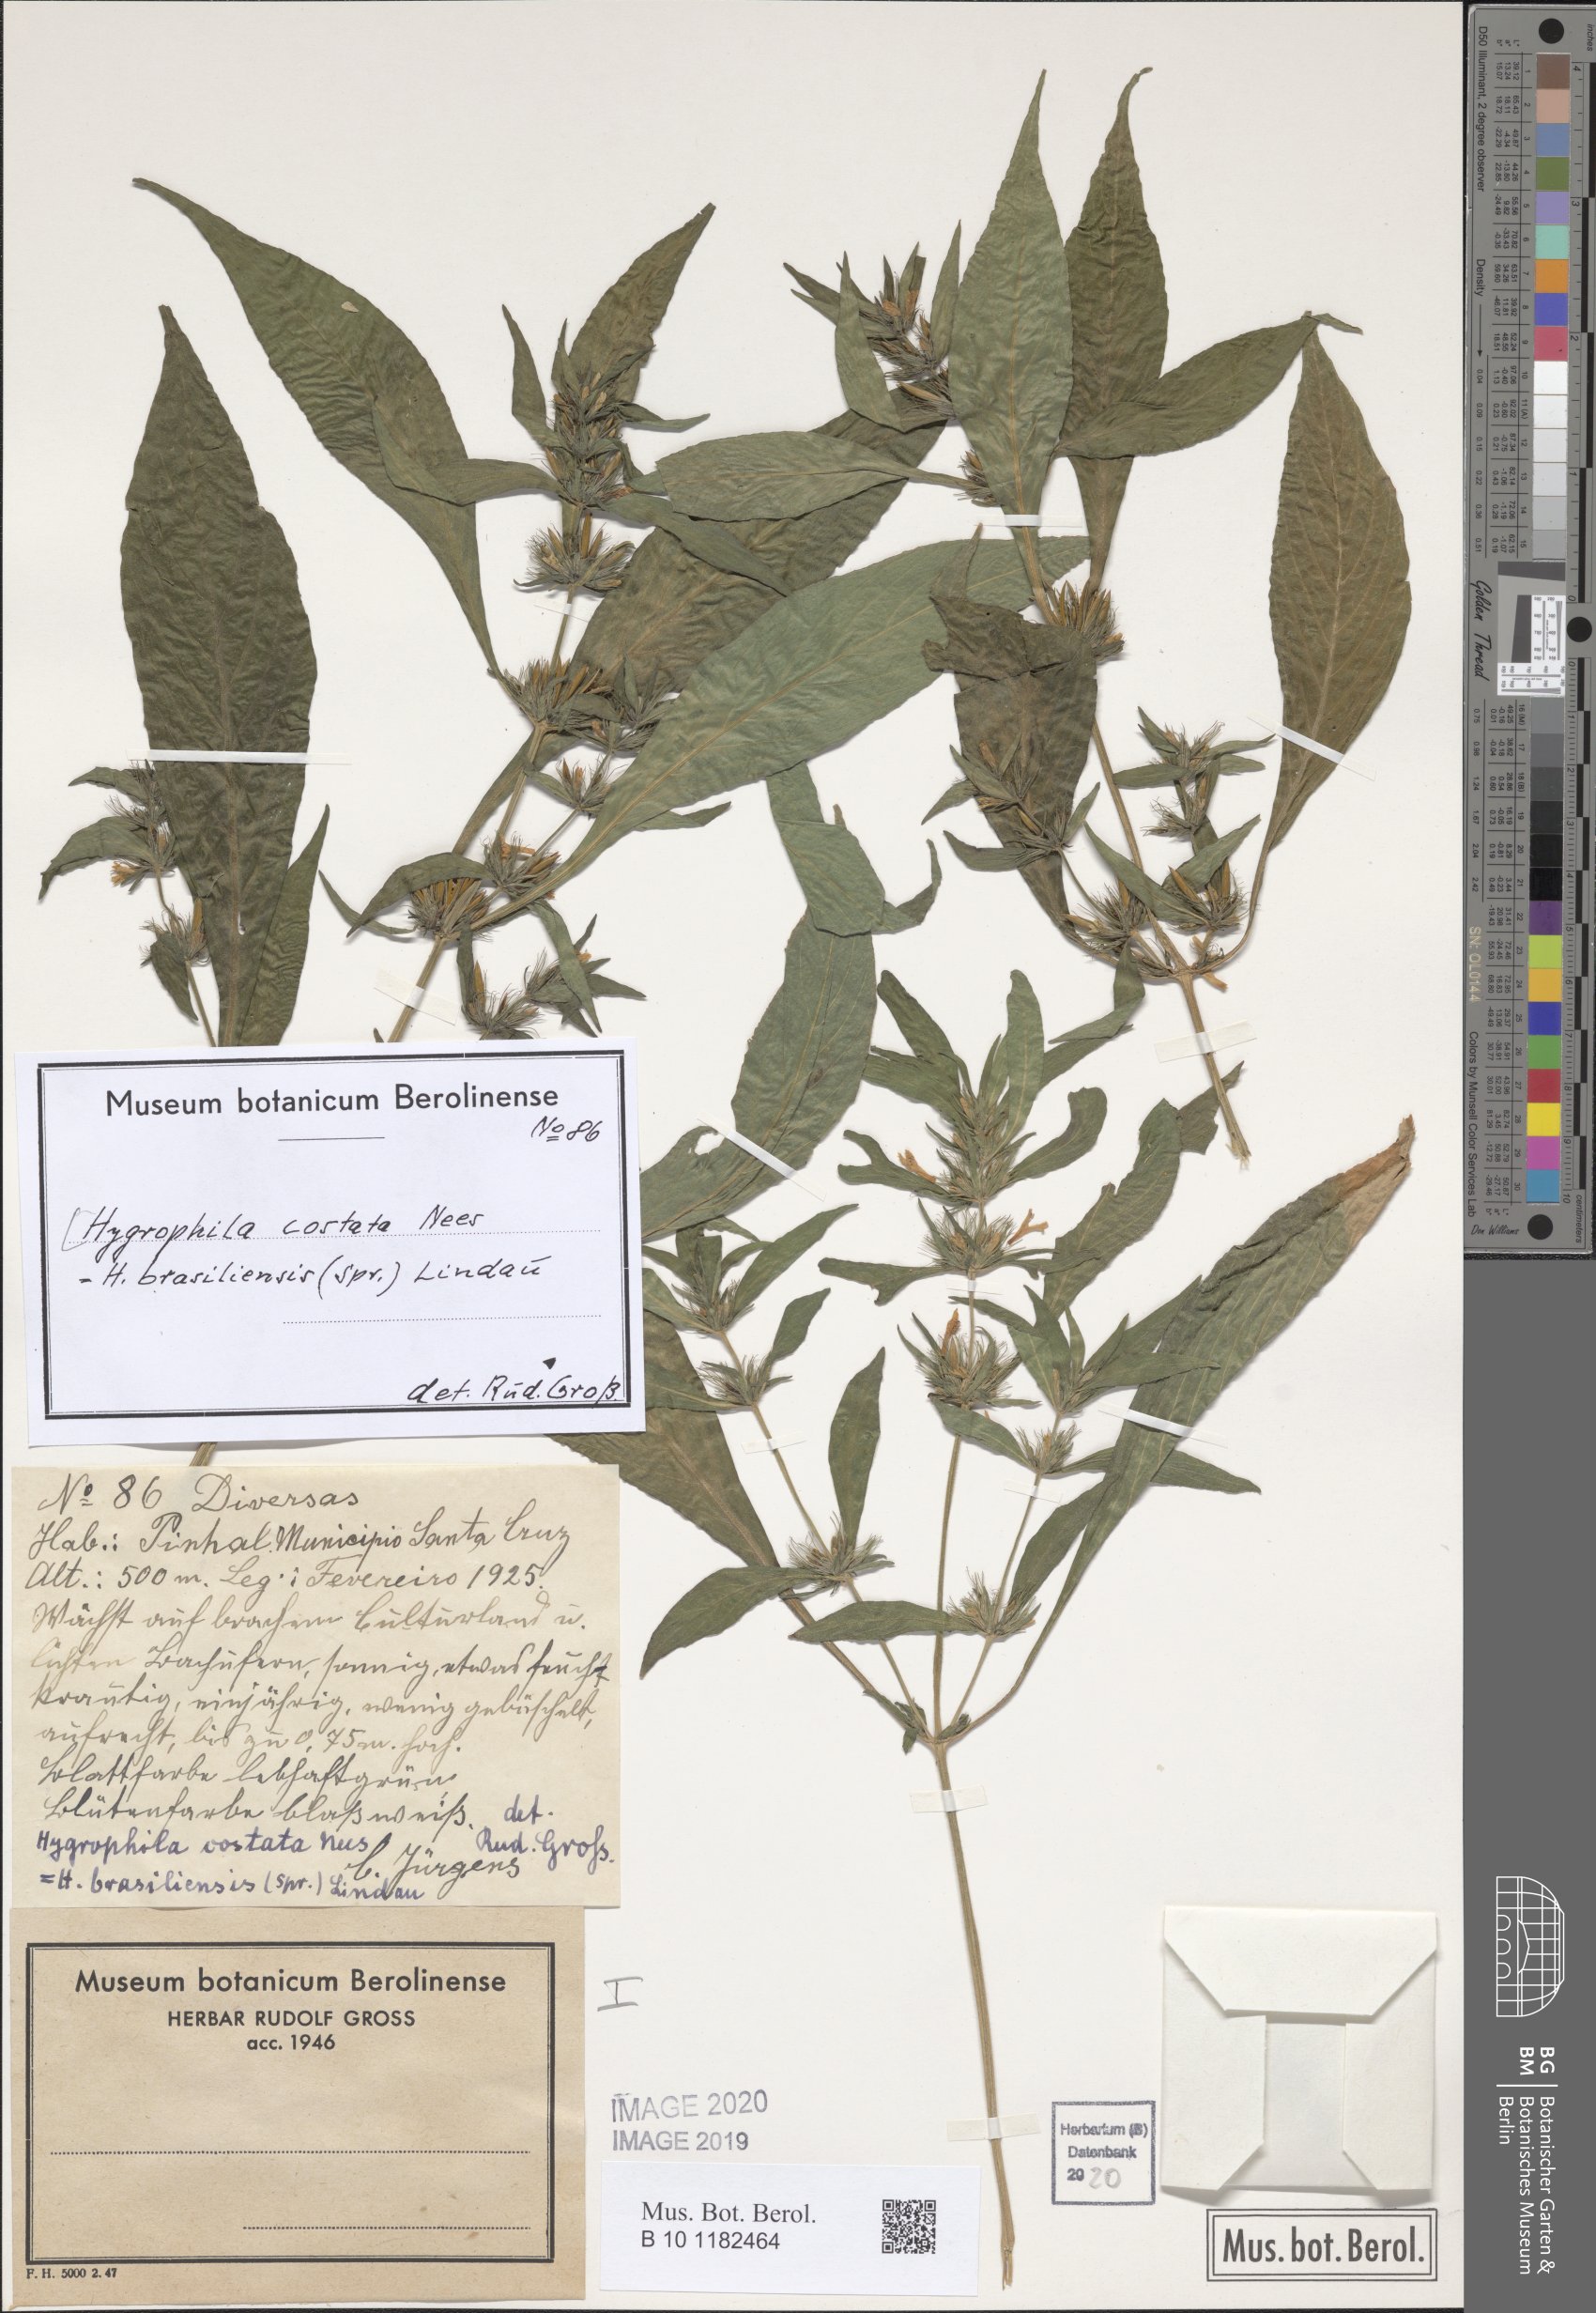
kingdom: Plantae
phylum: Tracheophyta
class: Magnoliopsida
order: Lamiales
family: Acanthaceae
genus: Hygrophila
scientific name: Hygrophila costata
